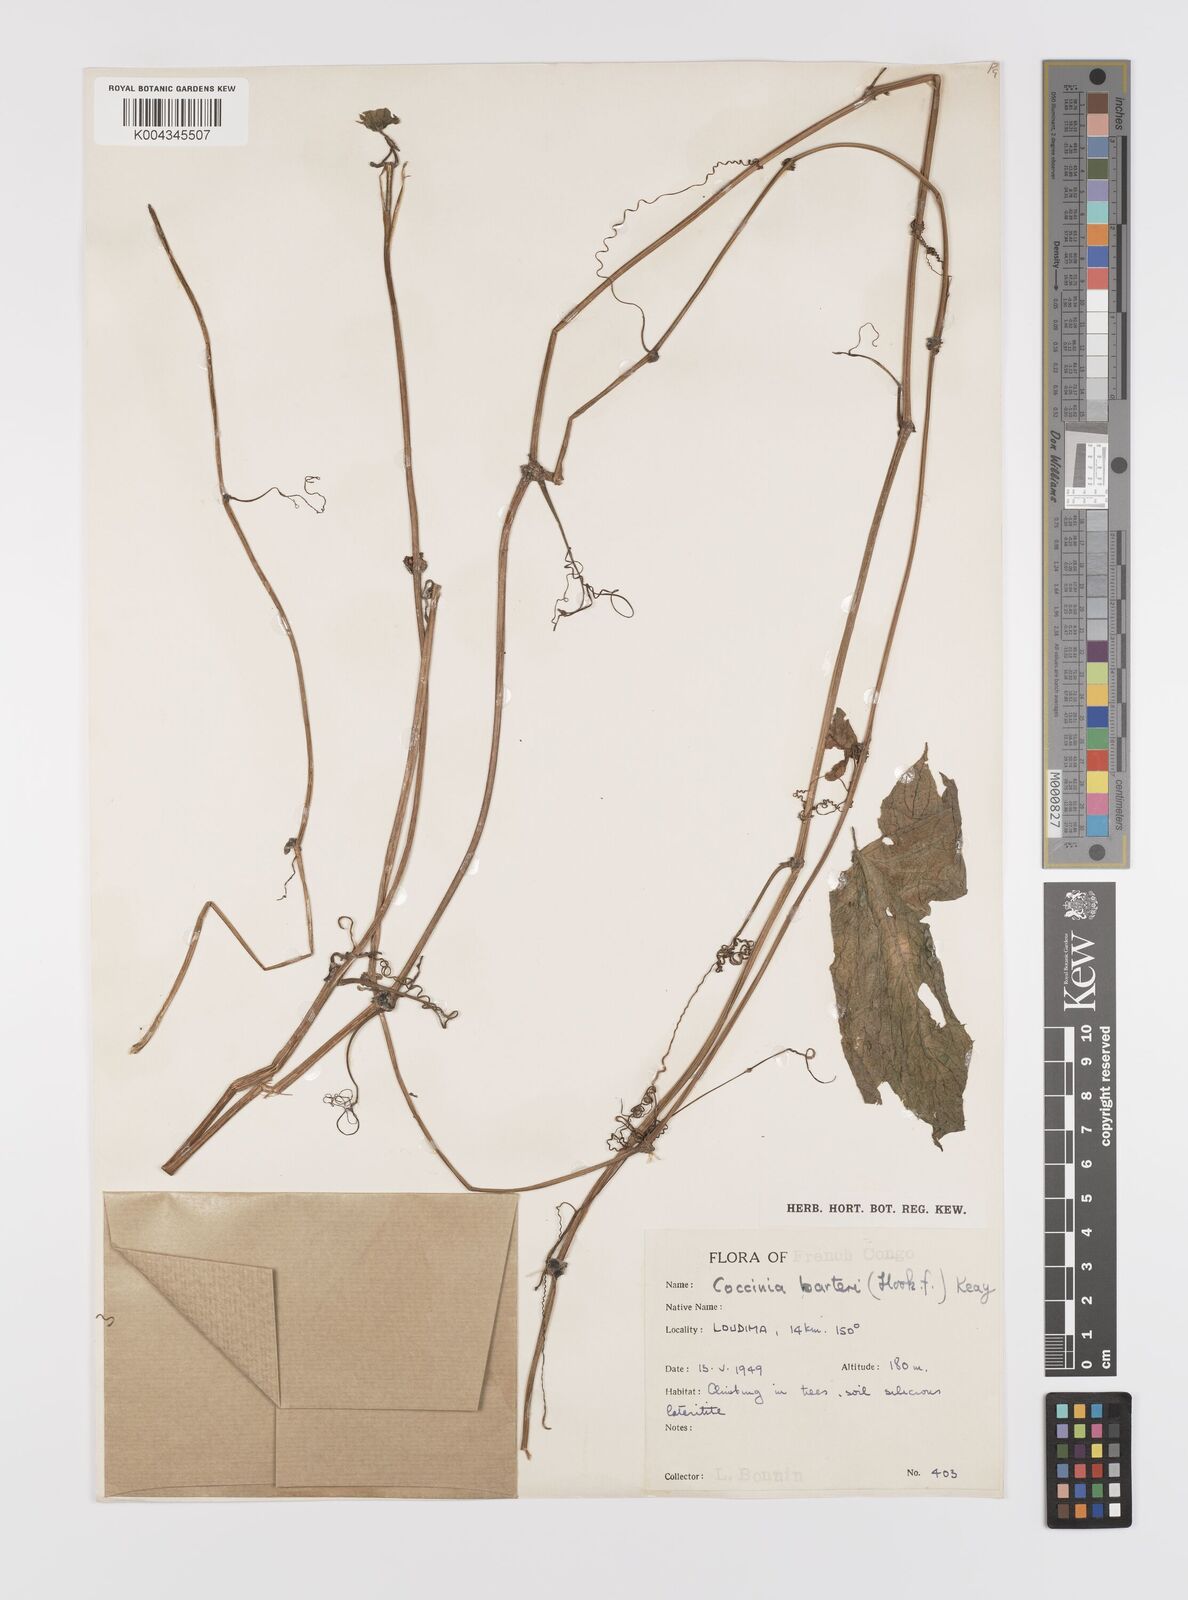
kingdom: Plantae
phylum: Tracheophyta
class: Magnoliopsida
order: Cucurbitales
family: Cucurbitaceae
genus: Coccinia
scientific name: Coccinia barteri
